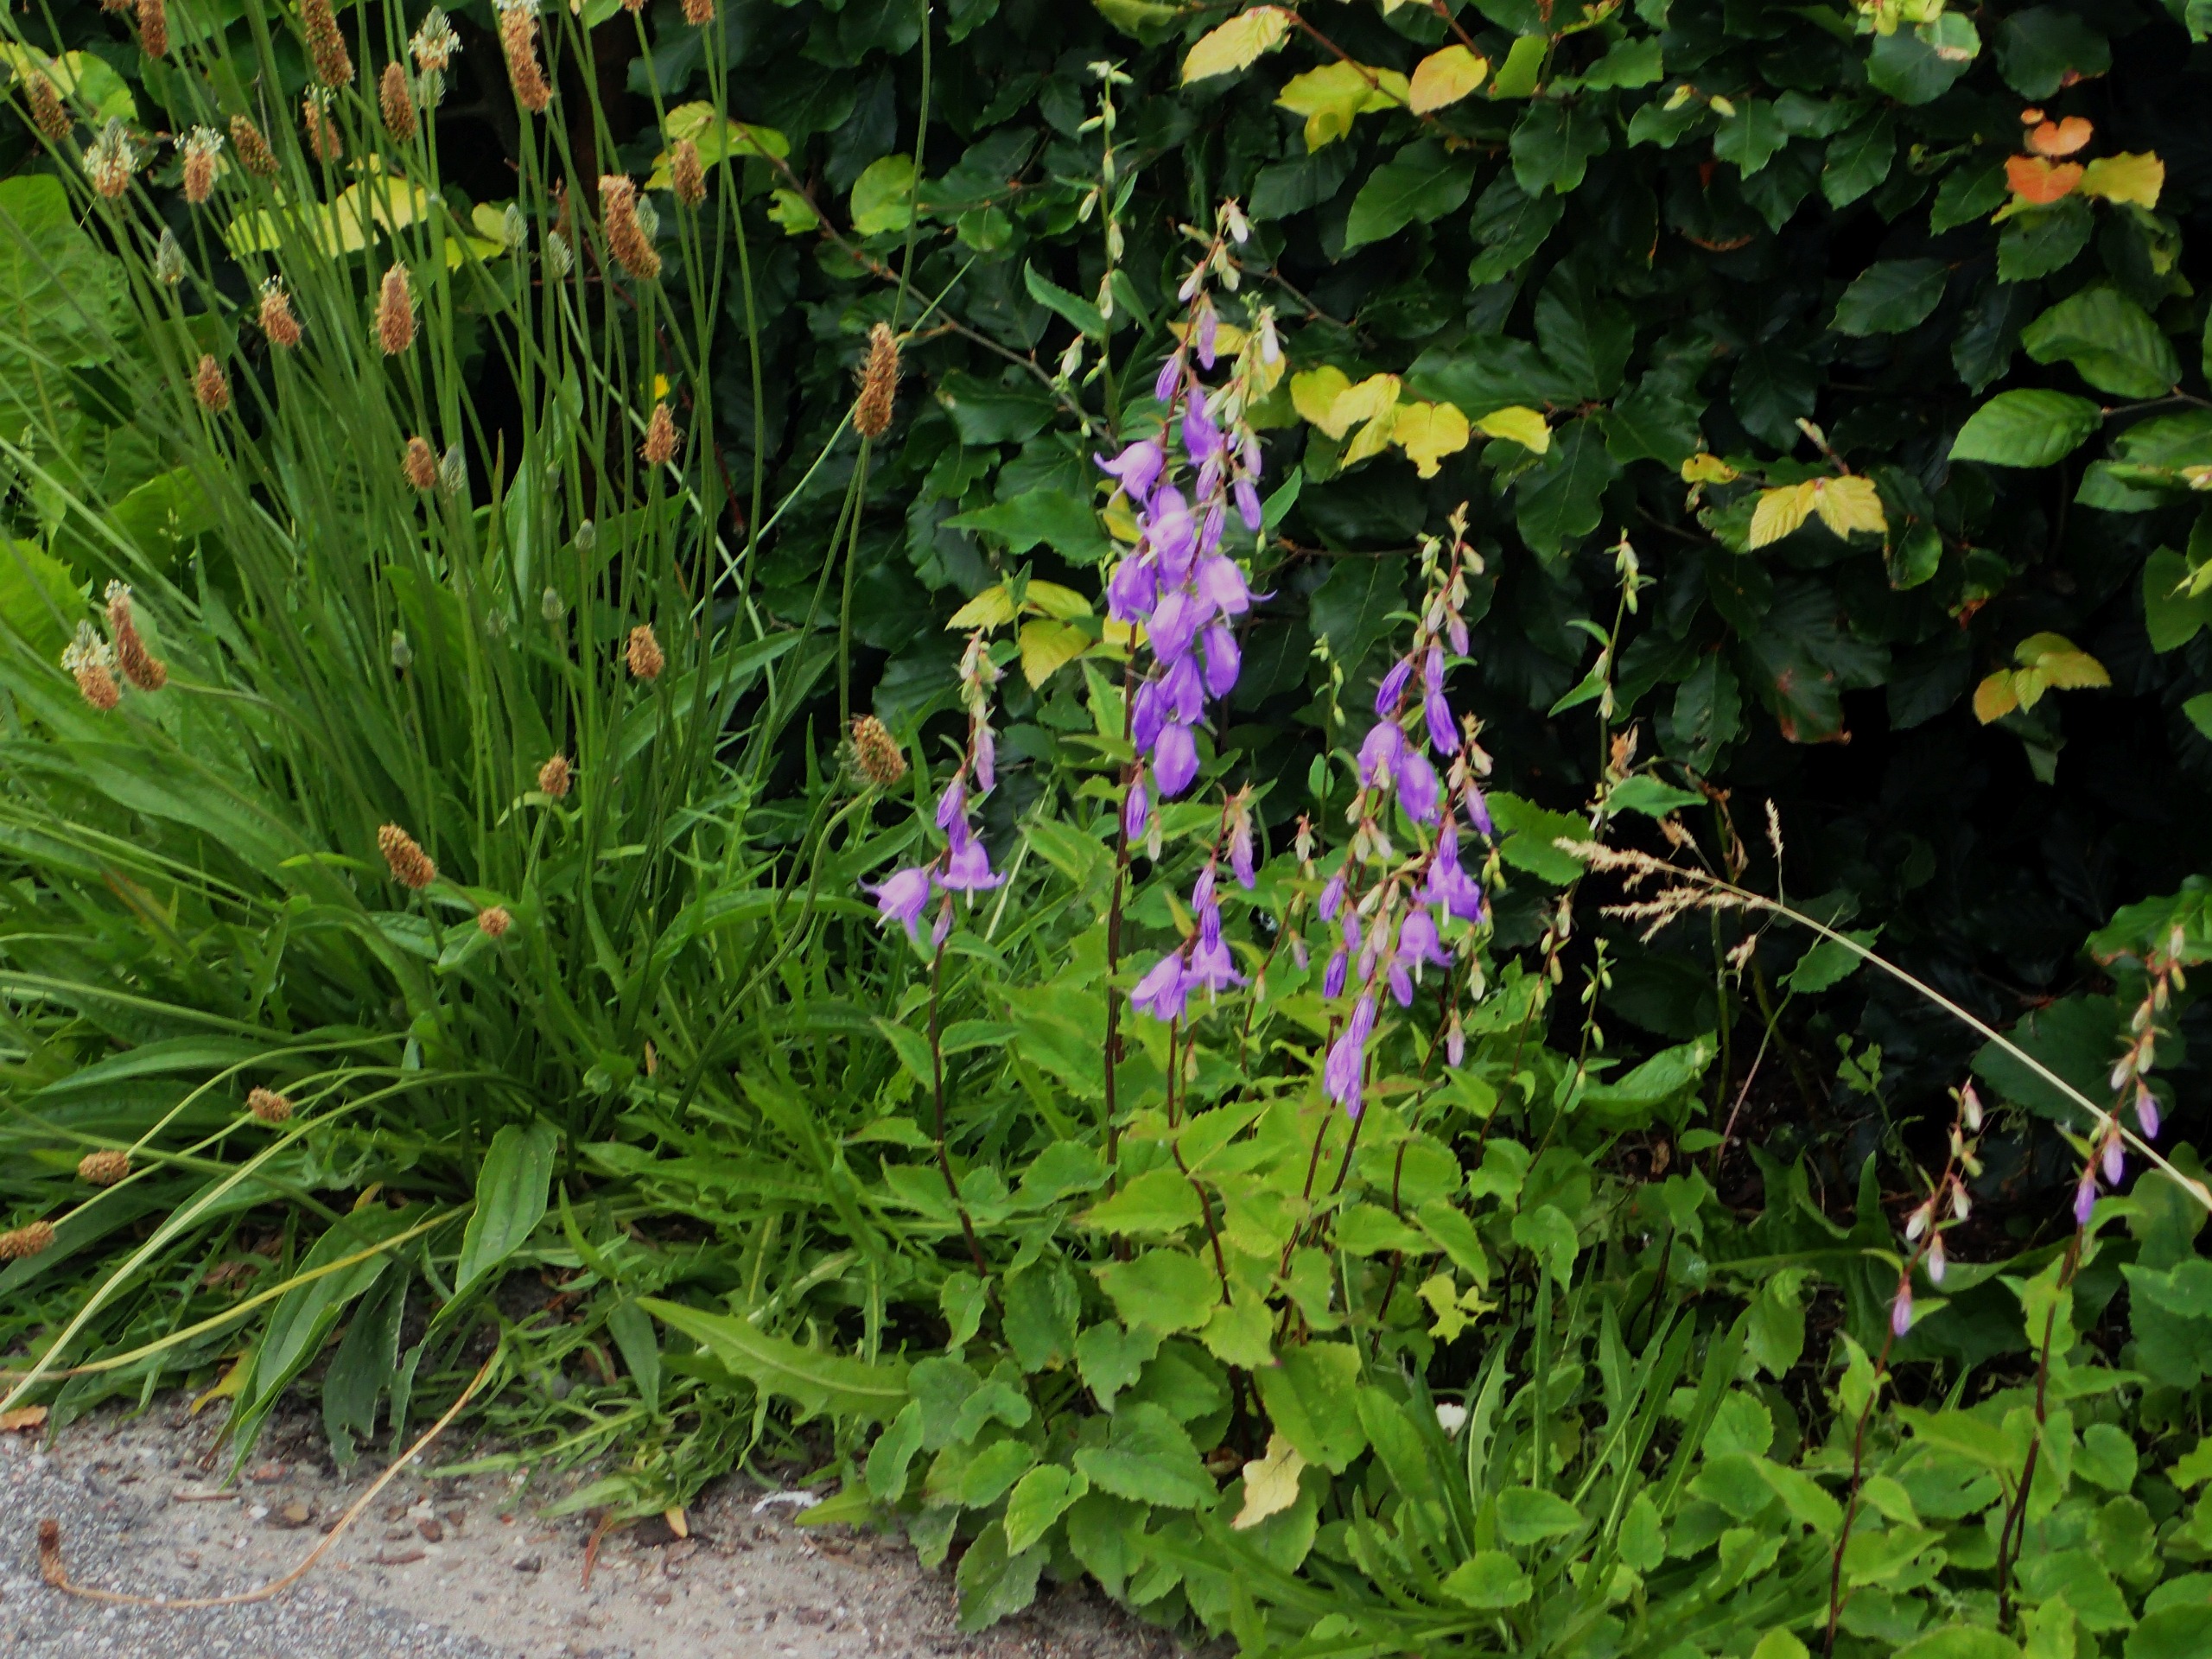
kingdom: Plantae
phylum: Tracheophyta
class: Magnoliopsida
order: Asterales
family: Campanulaceae
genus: Campanula
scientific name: Campanula rapunculoides
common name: Ensidig klokke
